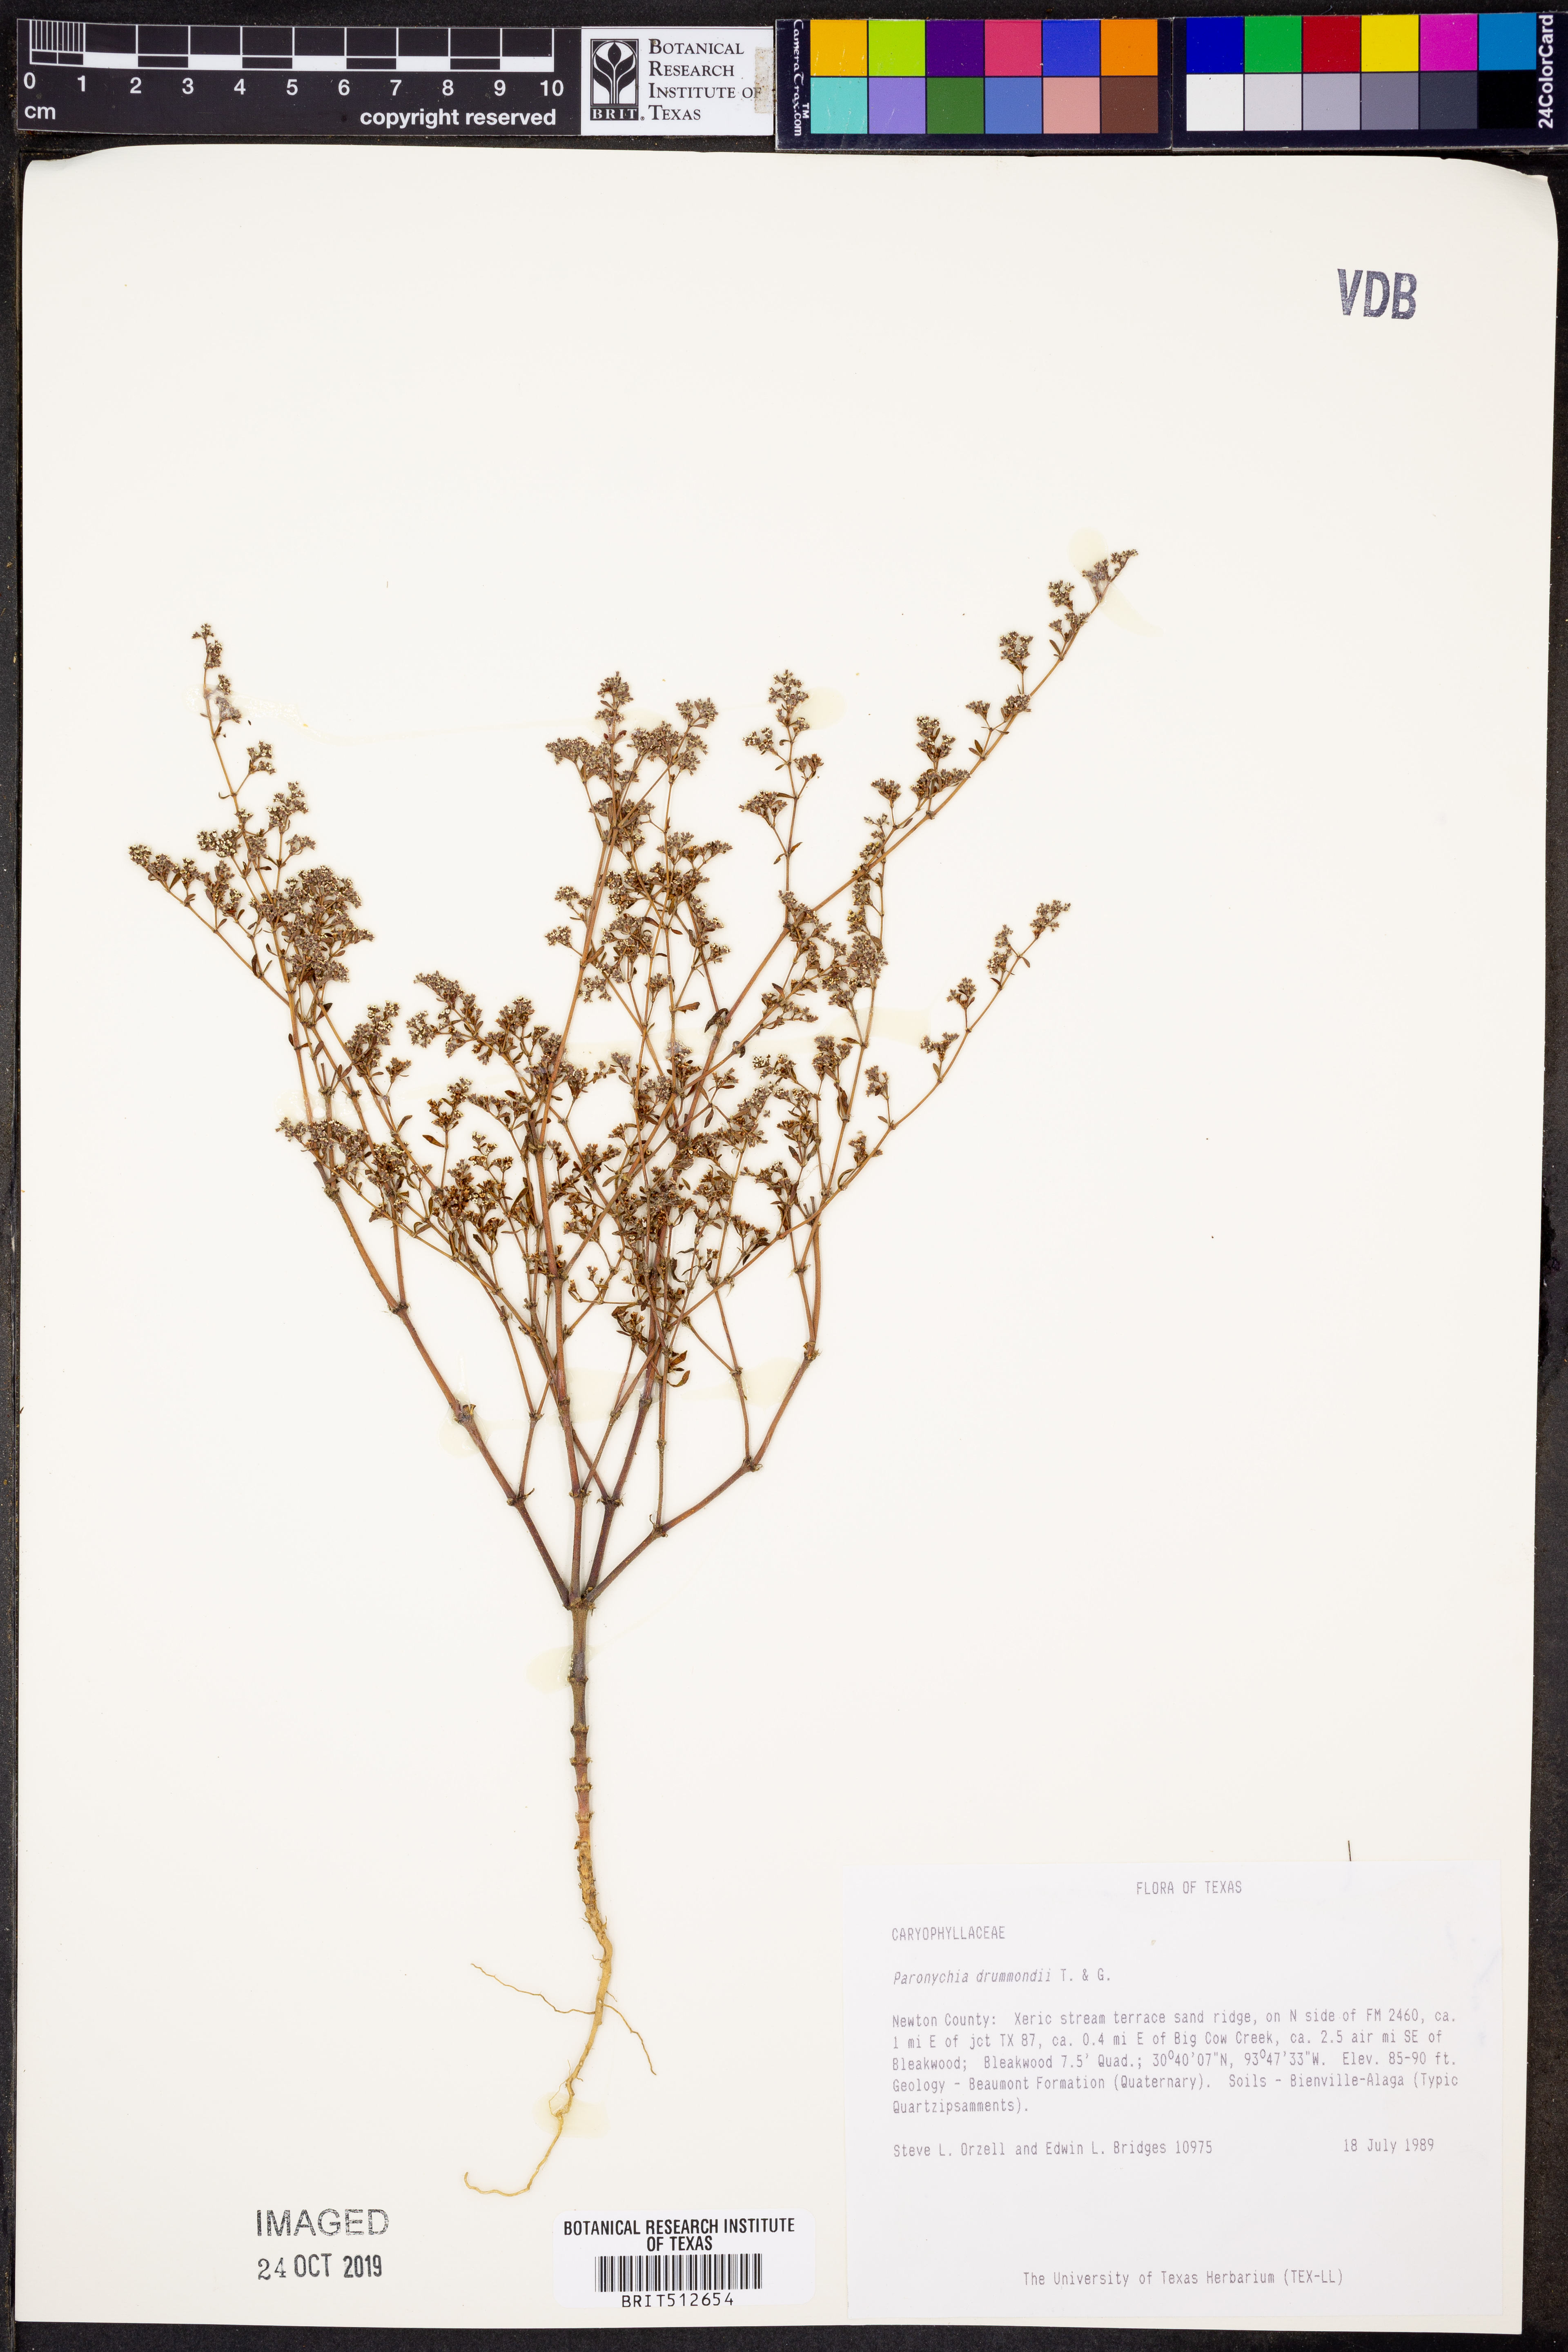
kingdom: Plantae
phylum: Tracheophyta
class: Magnoliopsida
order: Caryophyllales
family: Caryophyllaceae
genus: Paronychia
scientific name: Paronychia drummondii
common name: Drummond's nailwort
